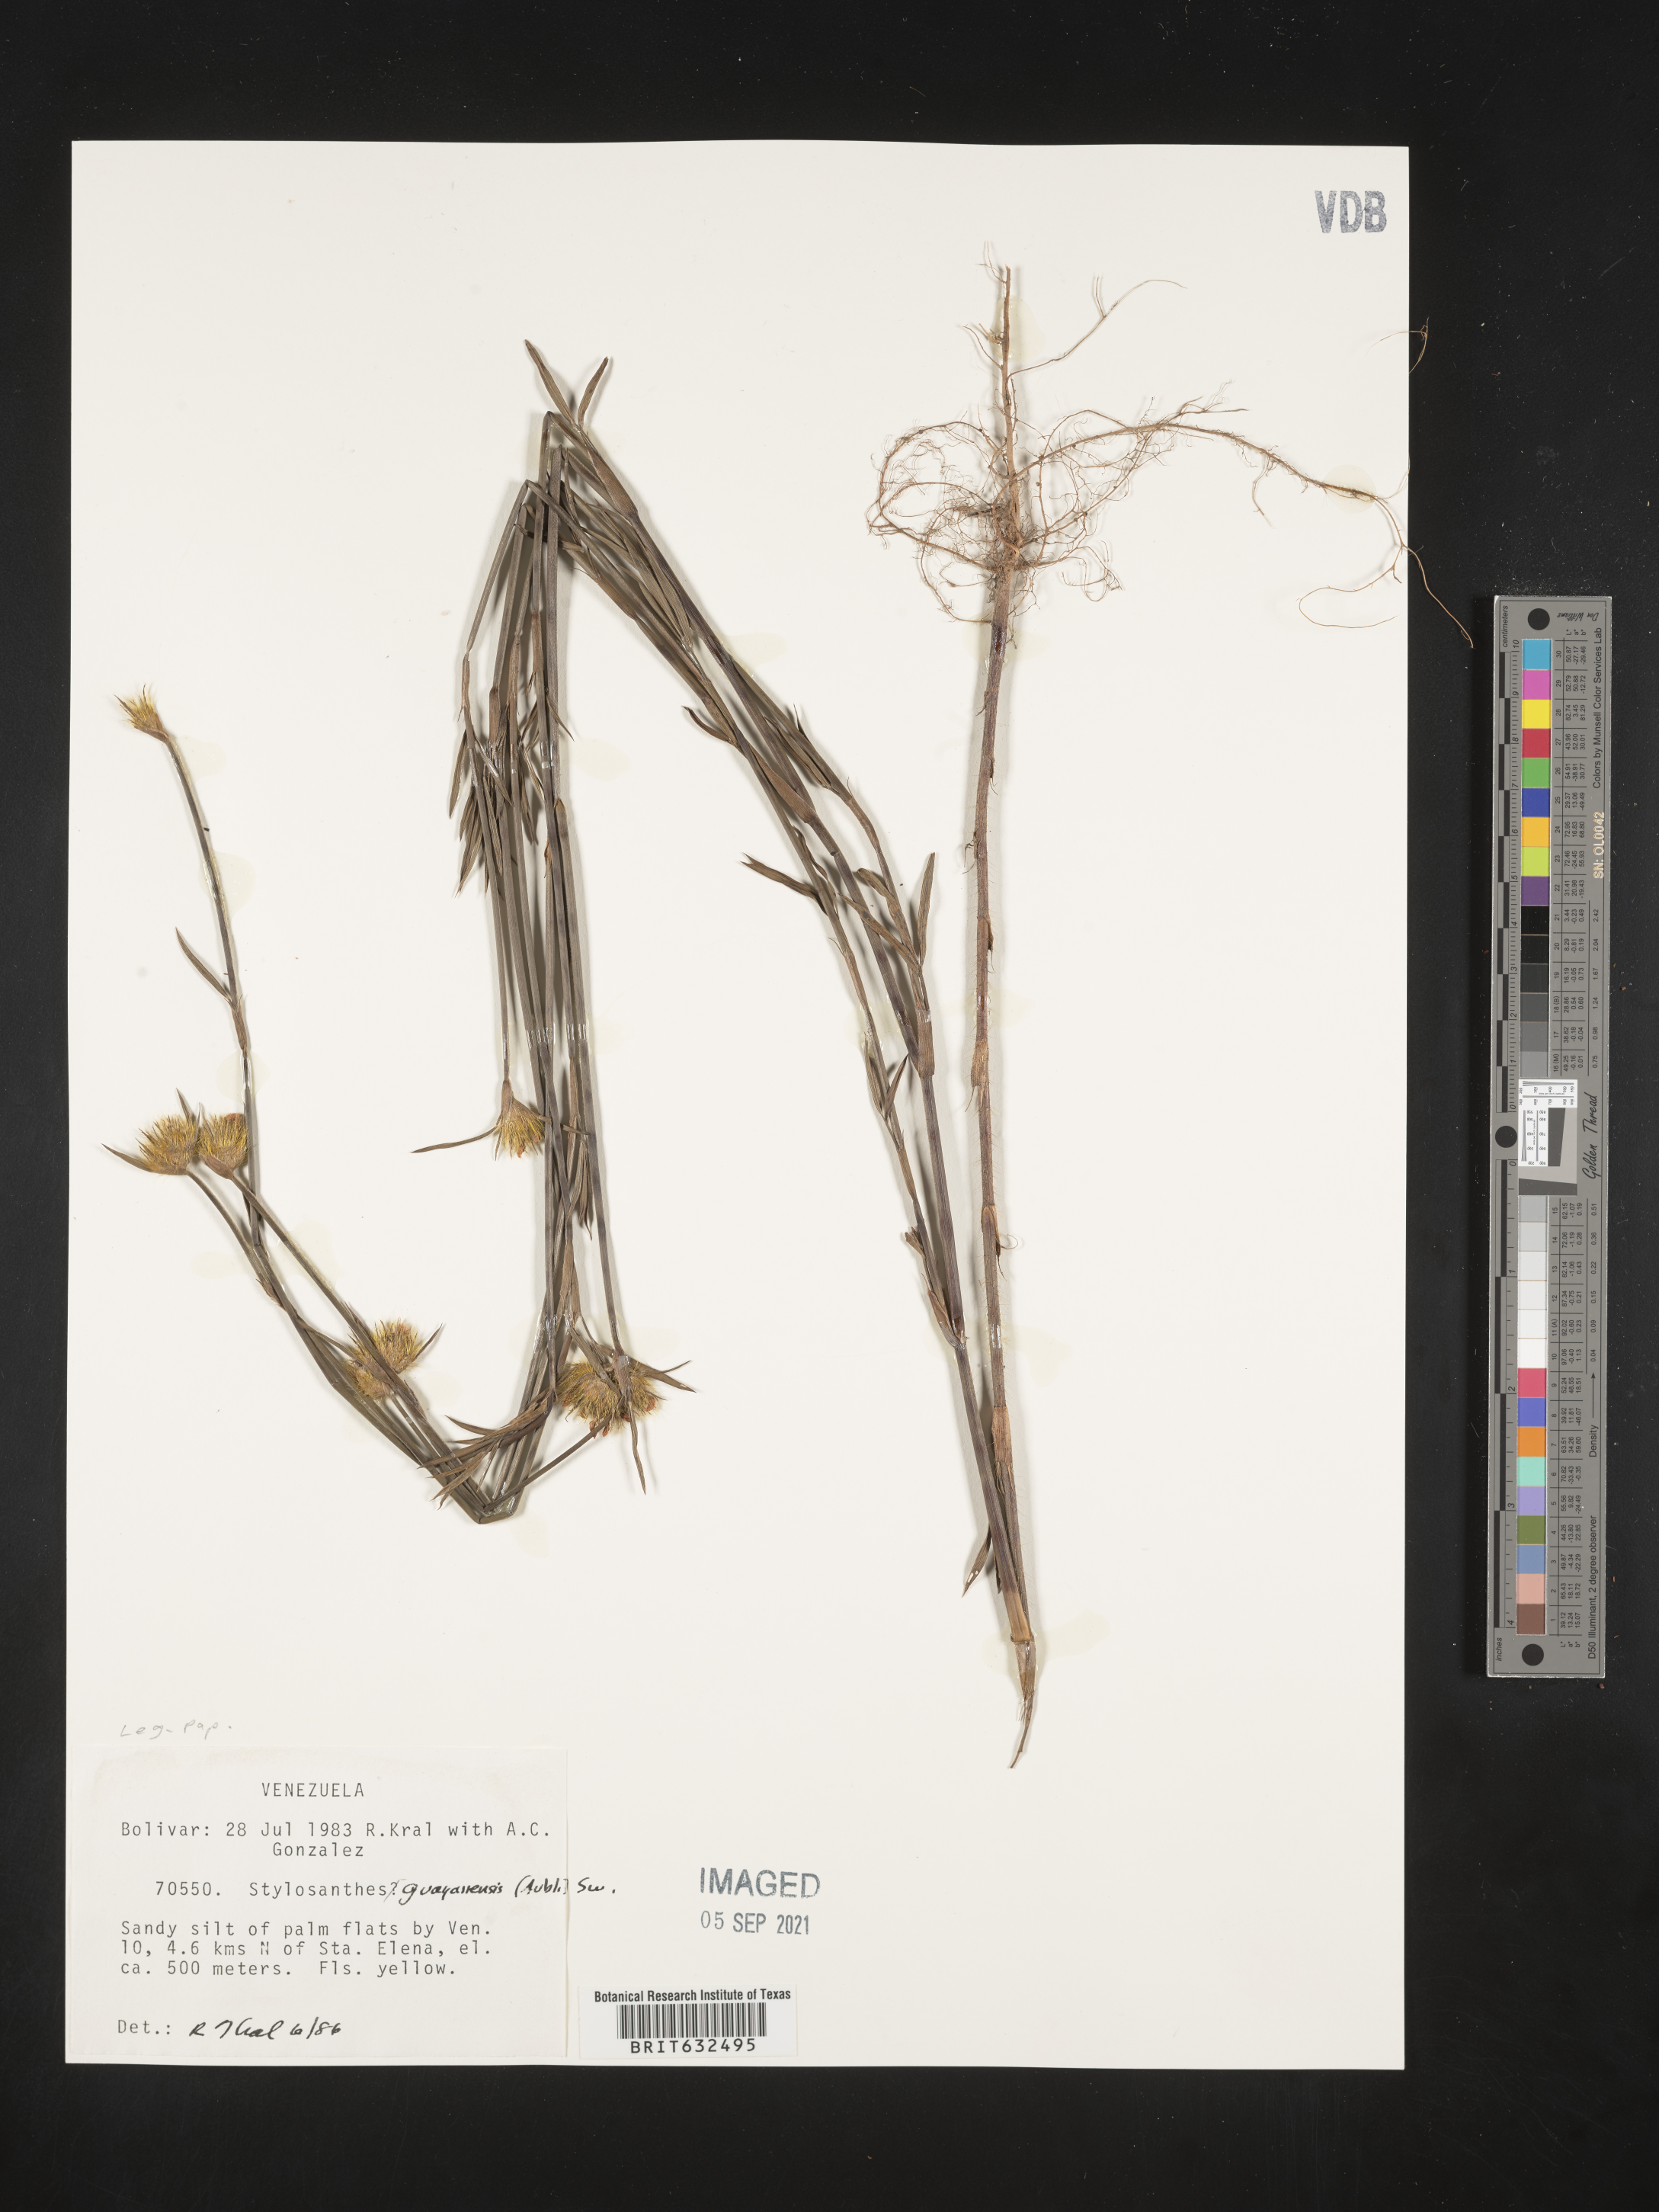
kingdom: Plantae
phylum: Tracheophyta
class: Magnoliopsida
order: Fabales
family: Fabaceae
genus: Stylosanthes
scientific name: Stylosanthes
